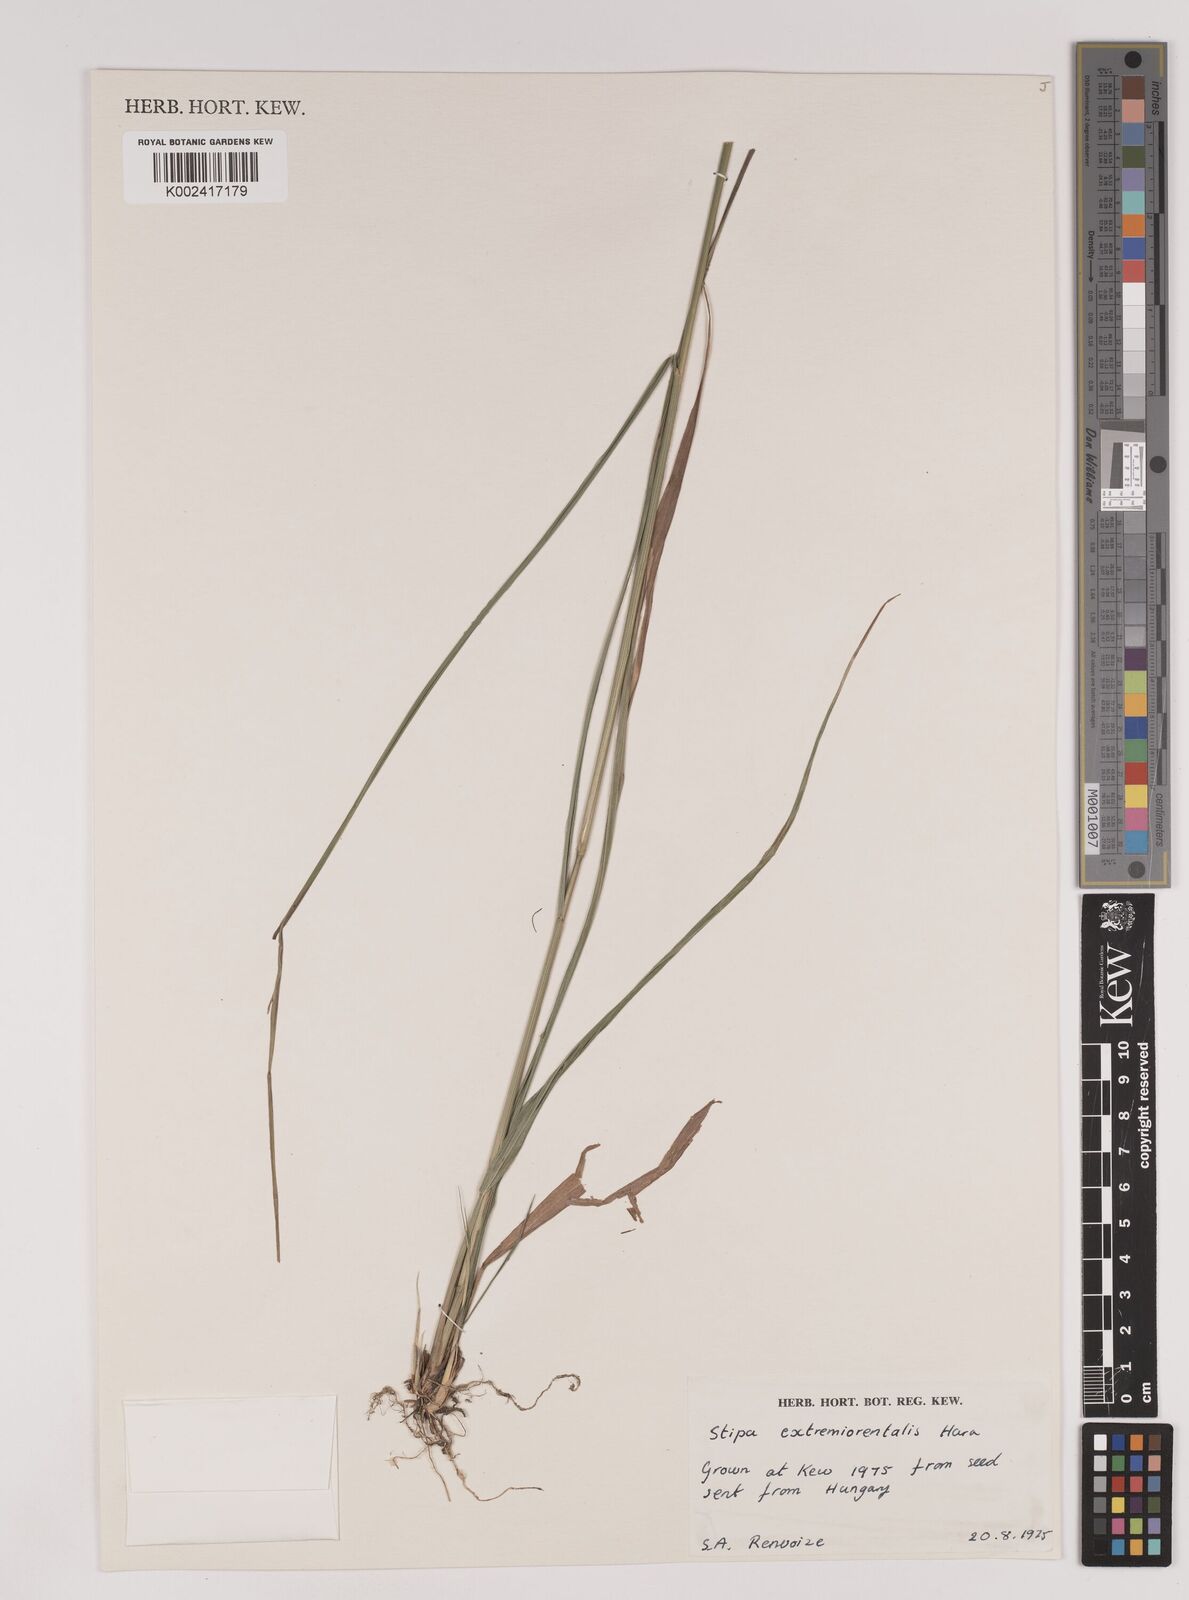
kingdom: Plantae
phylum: Tracheophyta
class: Liliopsida
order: Poales
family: Poaceae
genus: Achnatherum
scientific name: Achnatherum pekinense
